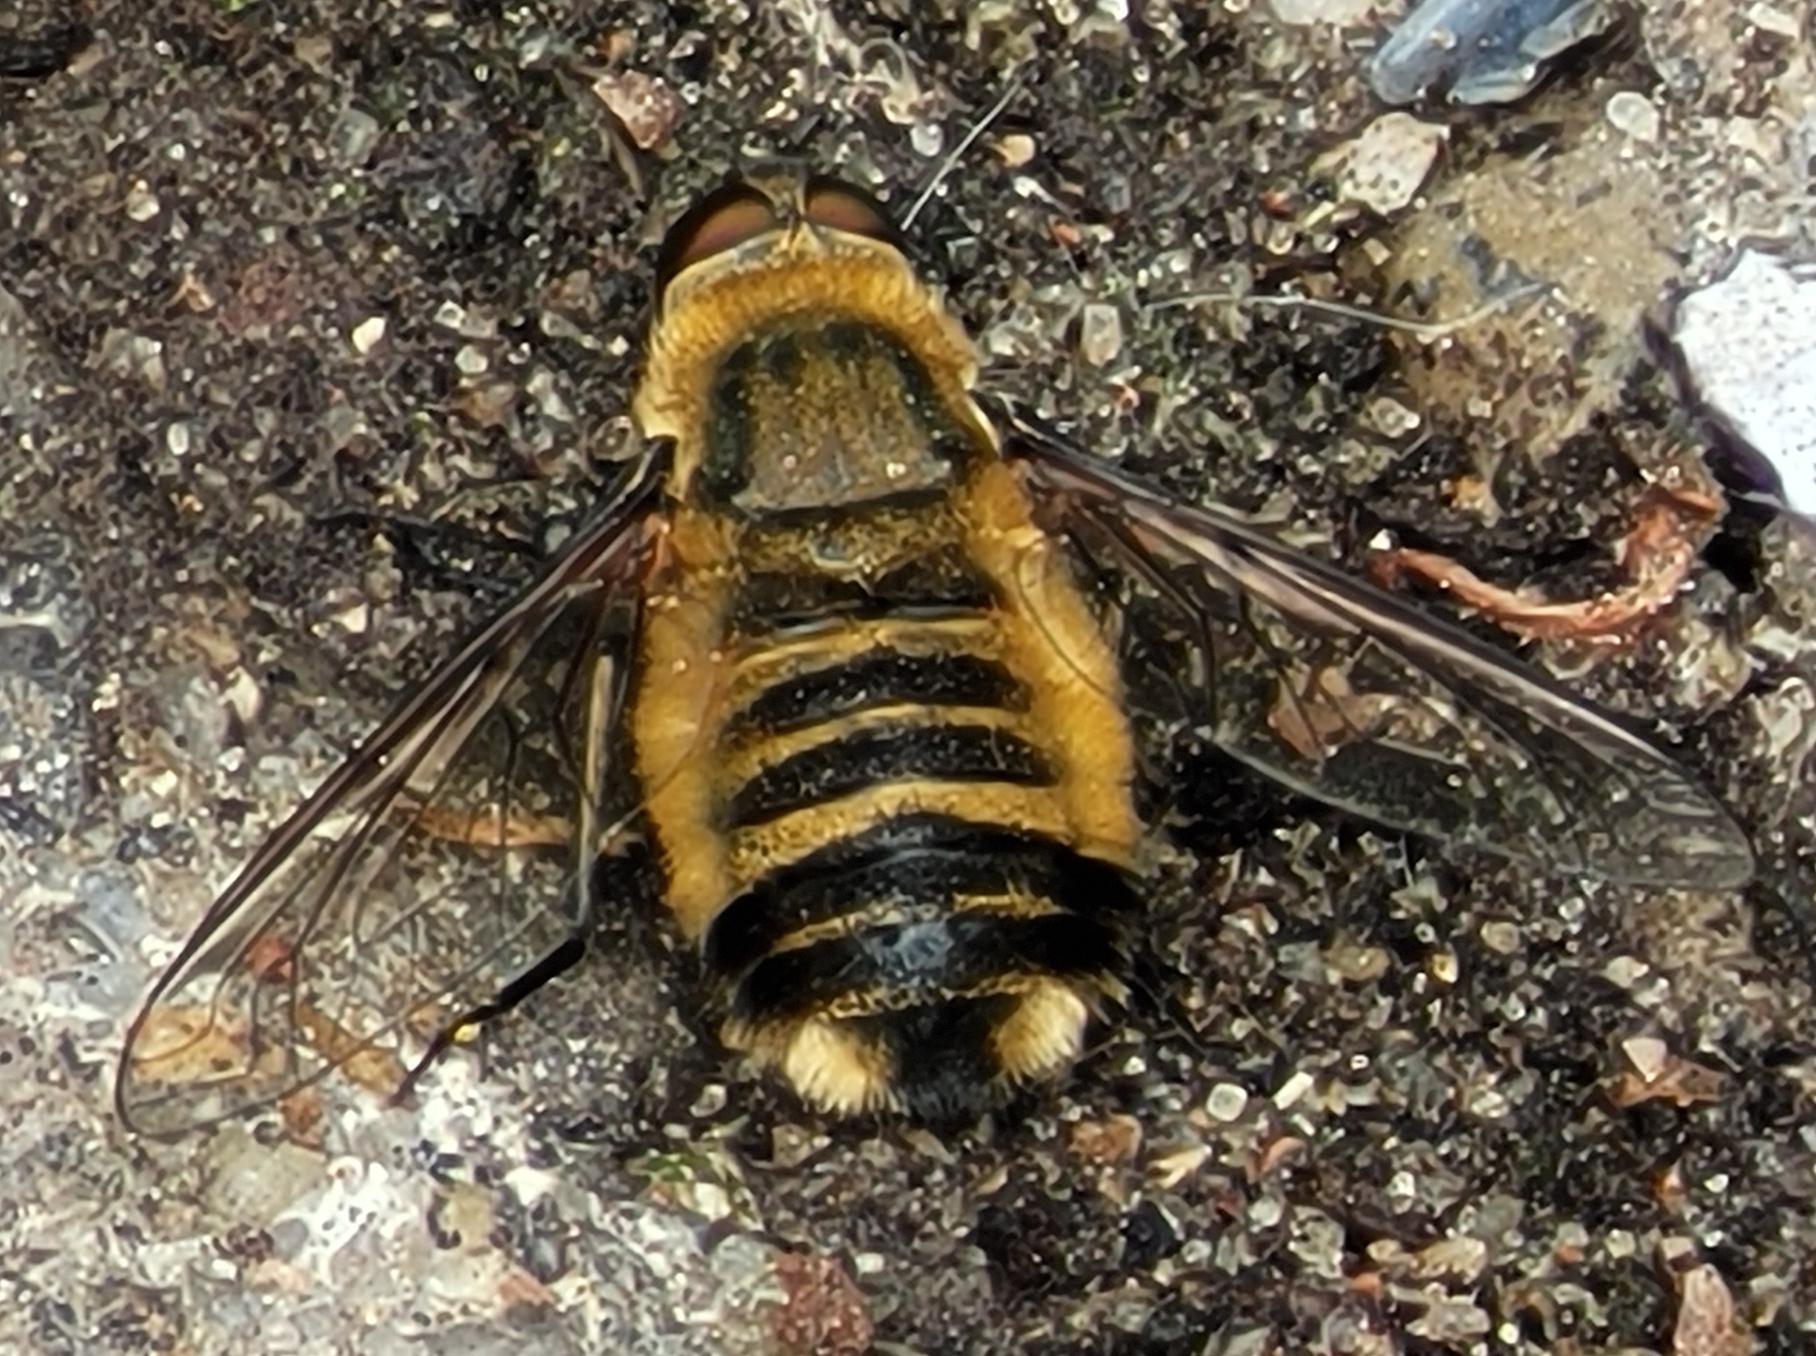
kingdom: Animalia
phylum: Arthropoda
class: Insecta
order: Diptera
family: Bombyliidae
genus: Villa
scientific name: Villa hottentotta
